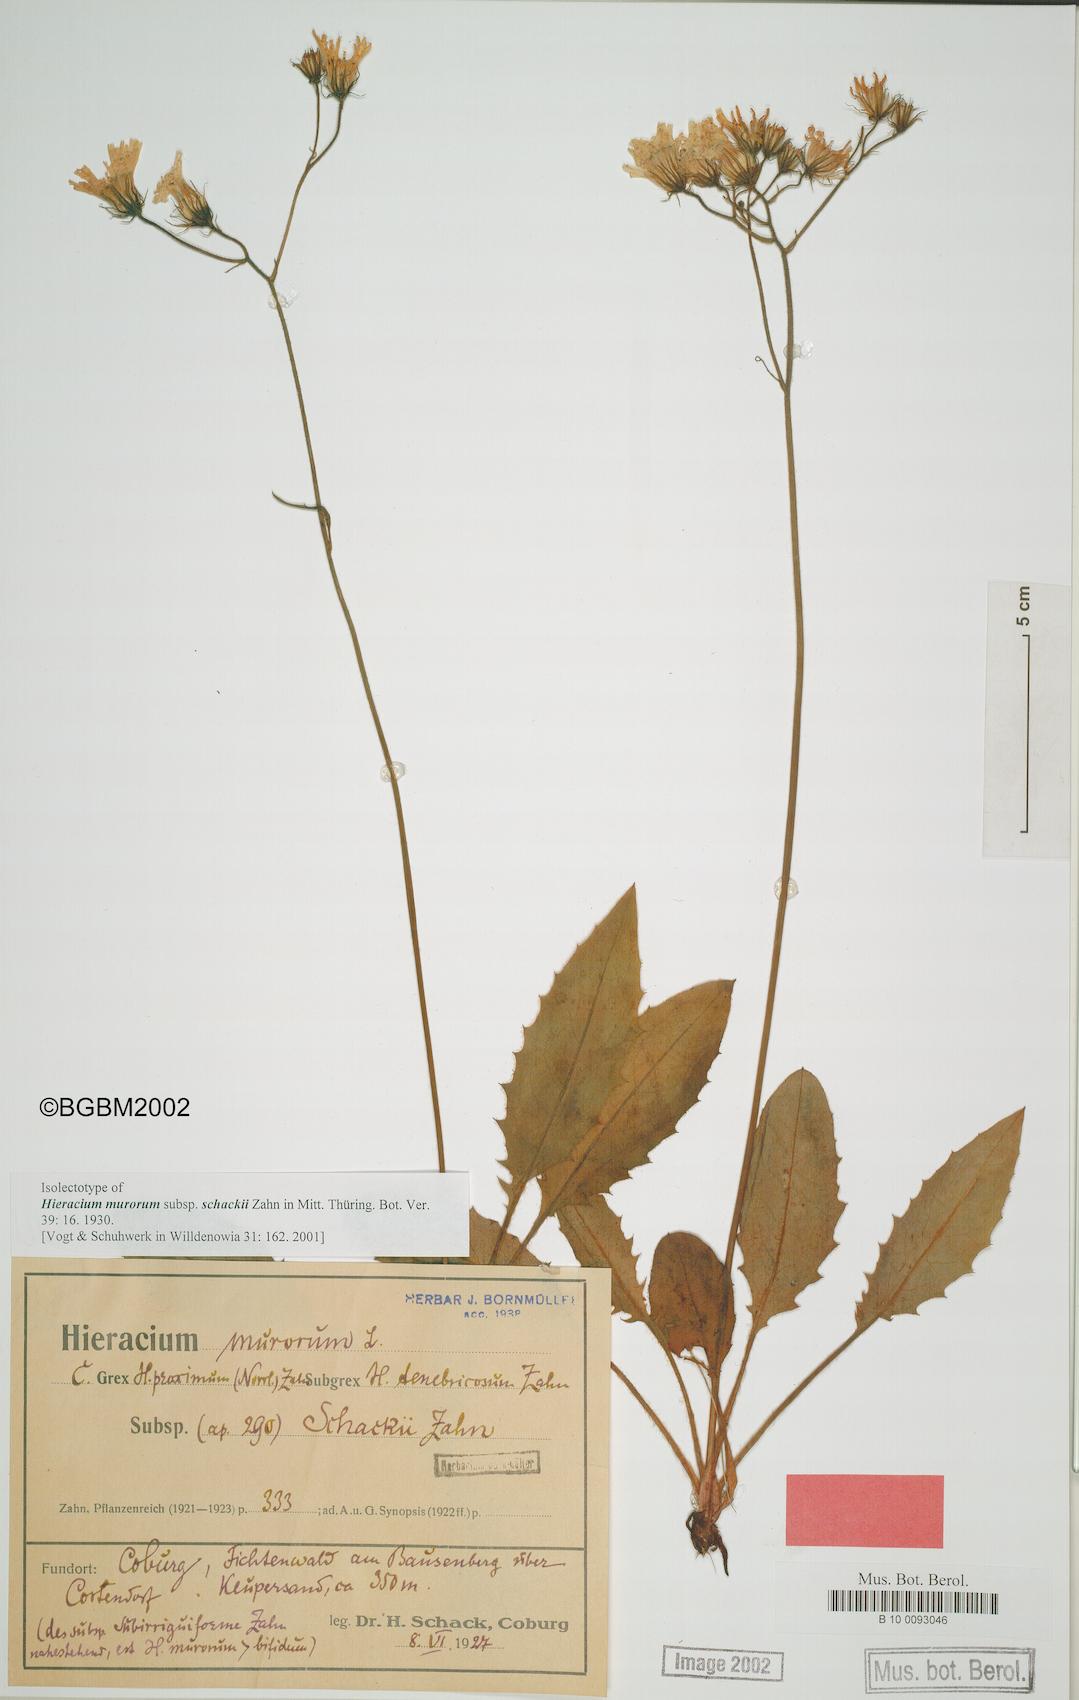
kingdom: Plantae
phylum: Tracheophyta
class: Magnoliopsida
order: Asterales
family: Asteraceae
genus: Hieracium
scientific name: Hieracium murorum
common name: Wall hawkweed
